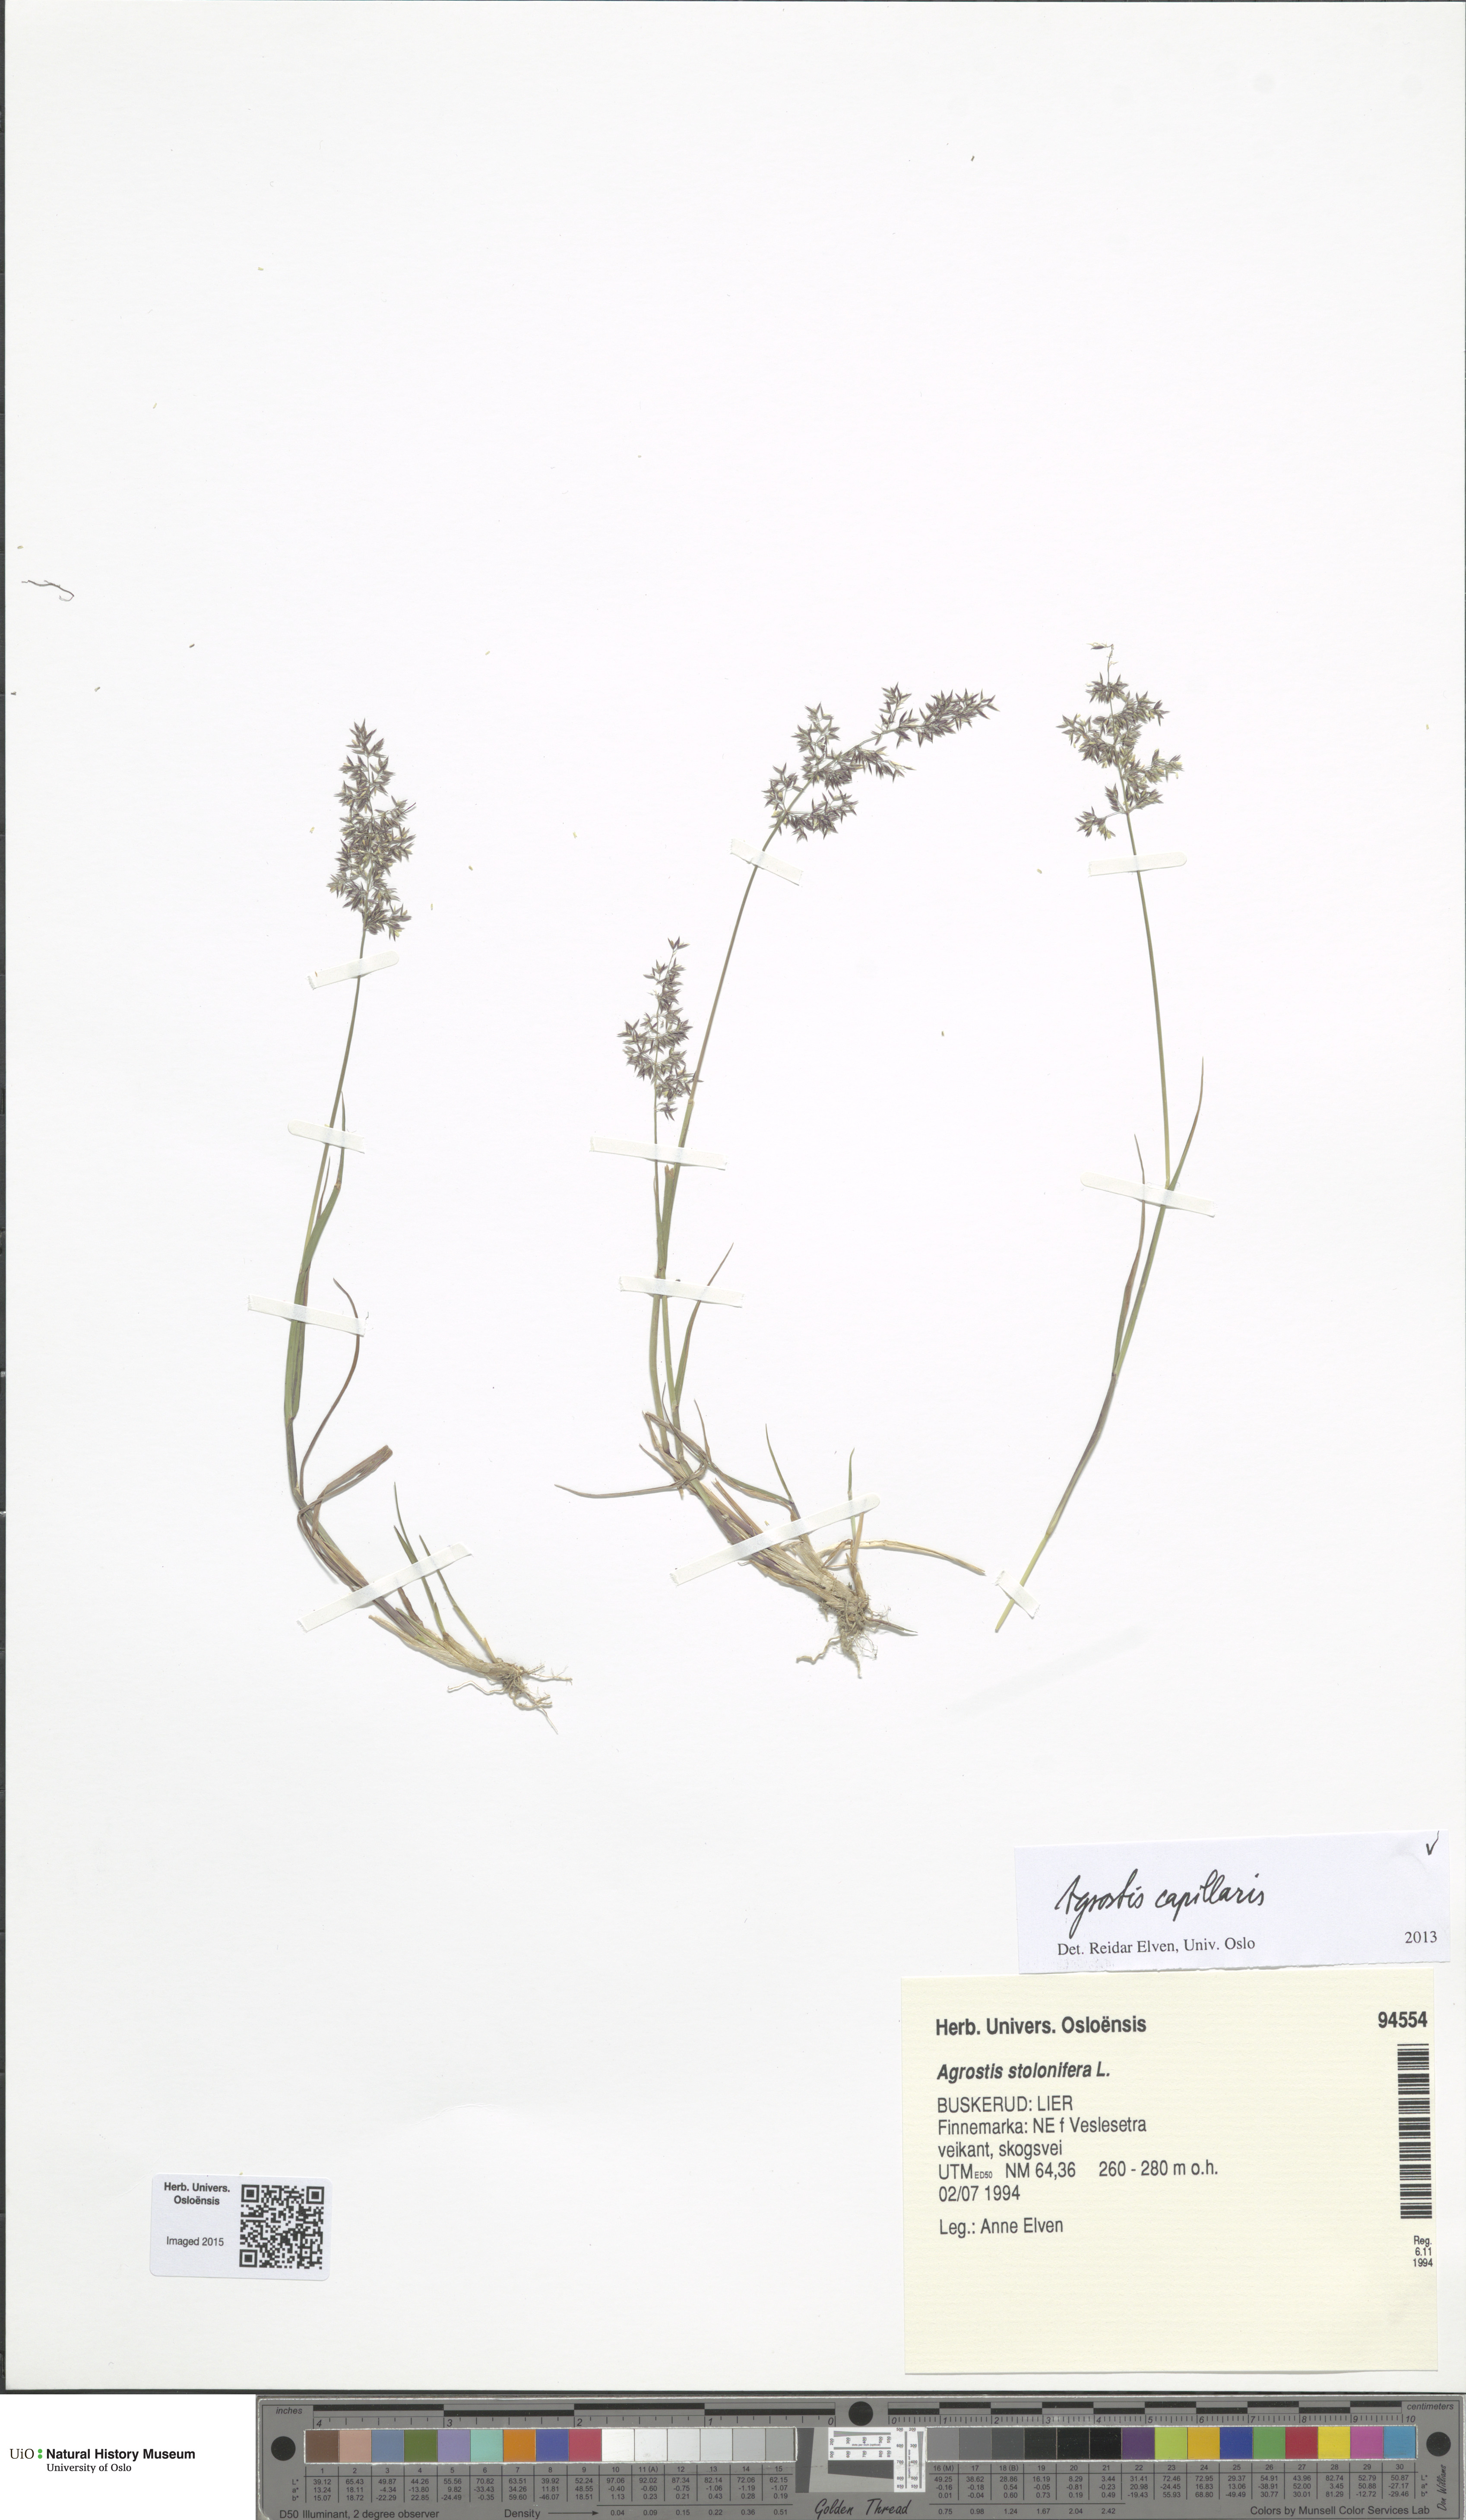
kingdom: Plantae
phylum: Tracheophyta
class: Liliopsida
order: Poales
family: Poaceae
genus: Agrostis
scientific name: Agrostis capillaris
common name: Colonial bentgrass
